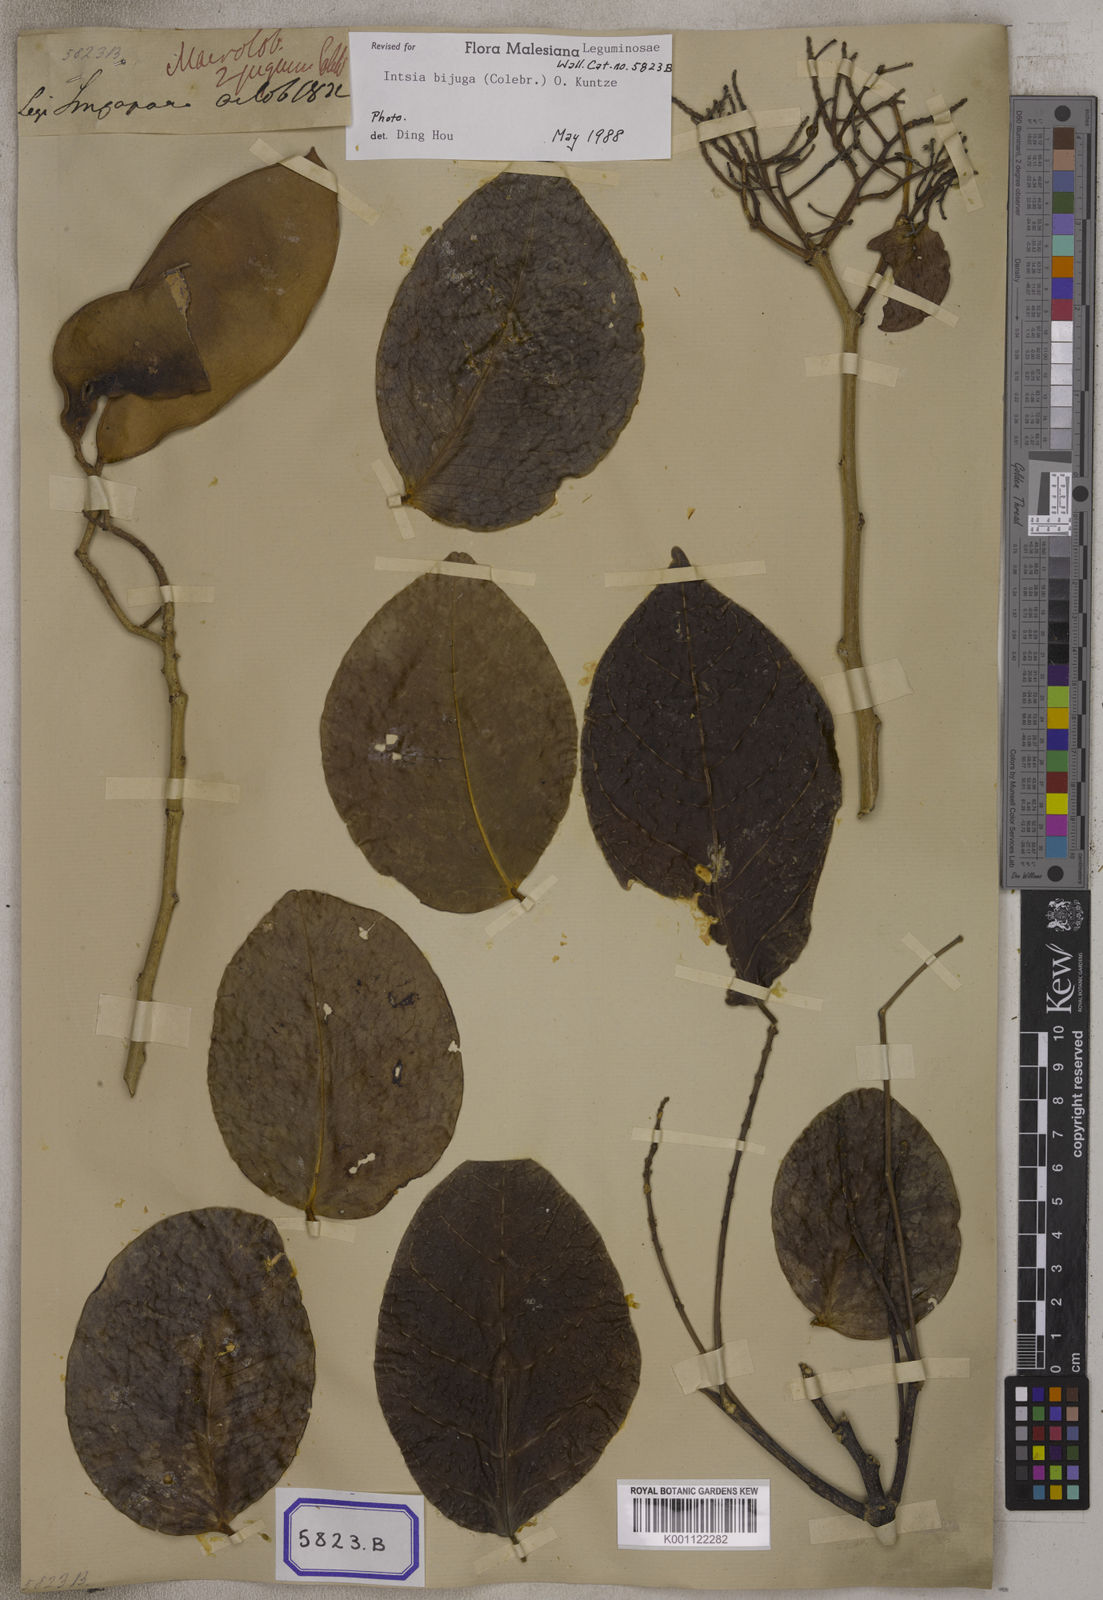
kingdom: Plantae
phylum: Tracheophyta
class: Magnoliopsida
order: Fabales
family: Fabaceae
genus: Intsia
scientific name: Intsia bijuga
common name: Moluccan ironwood
